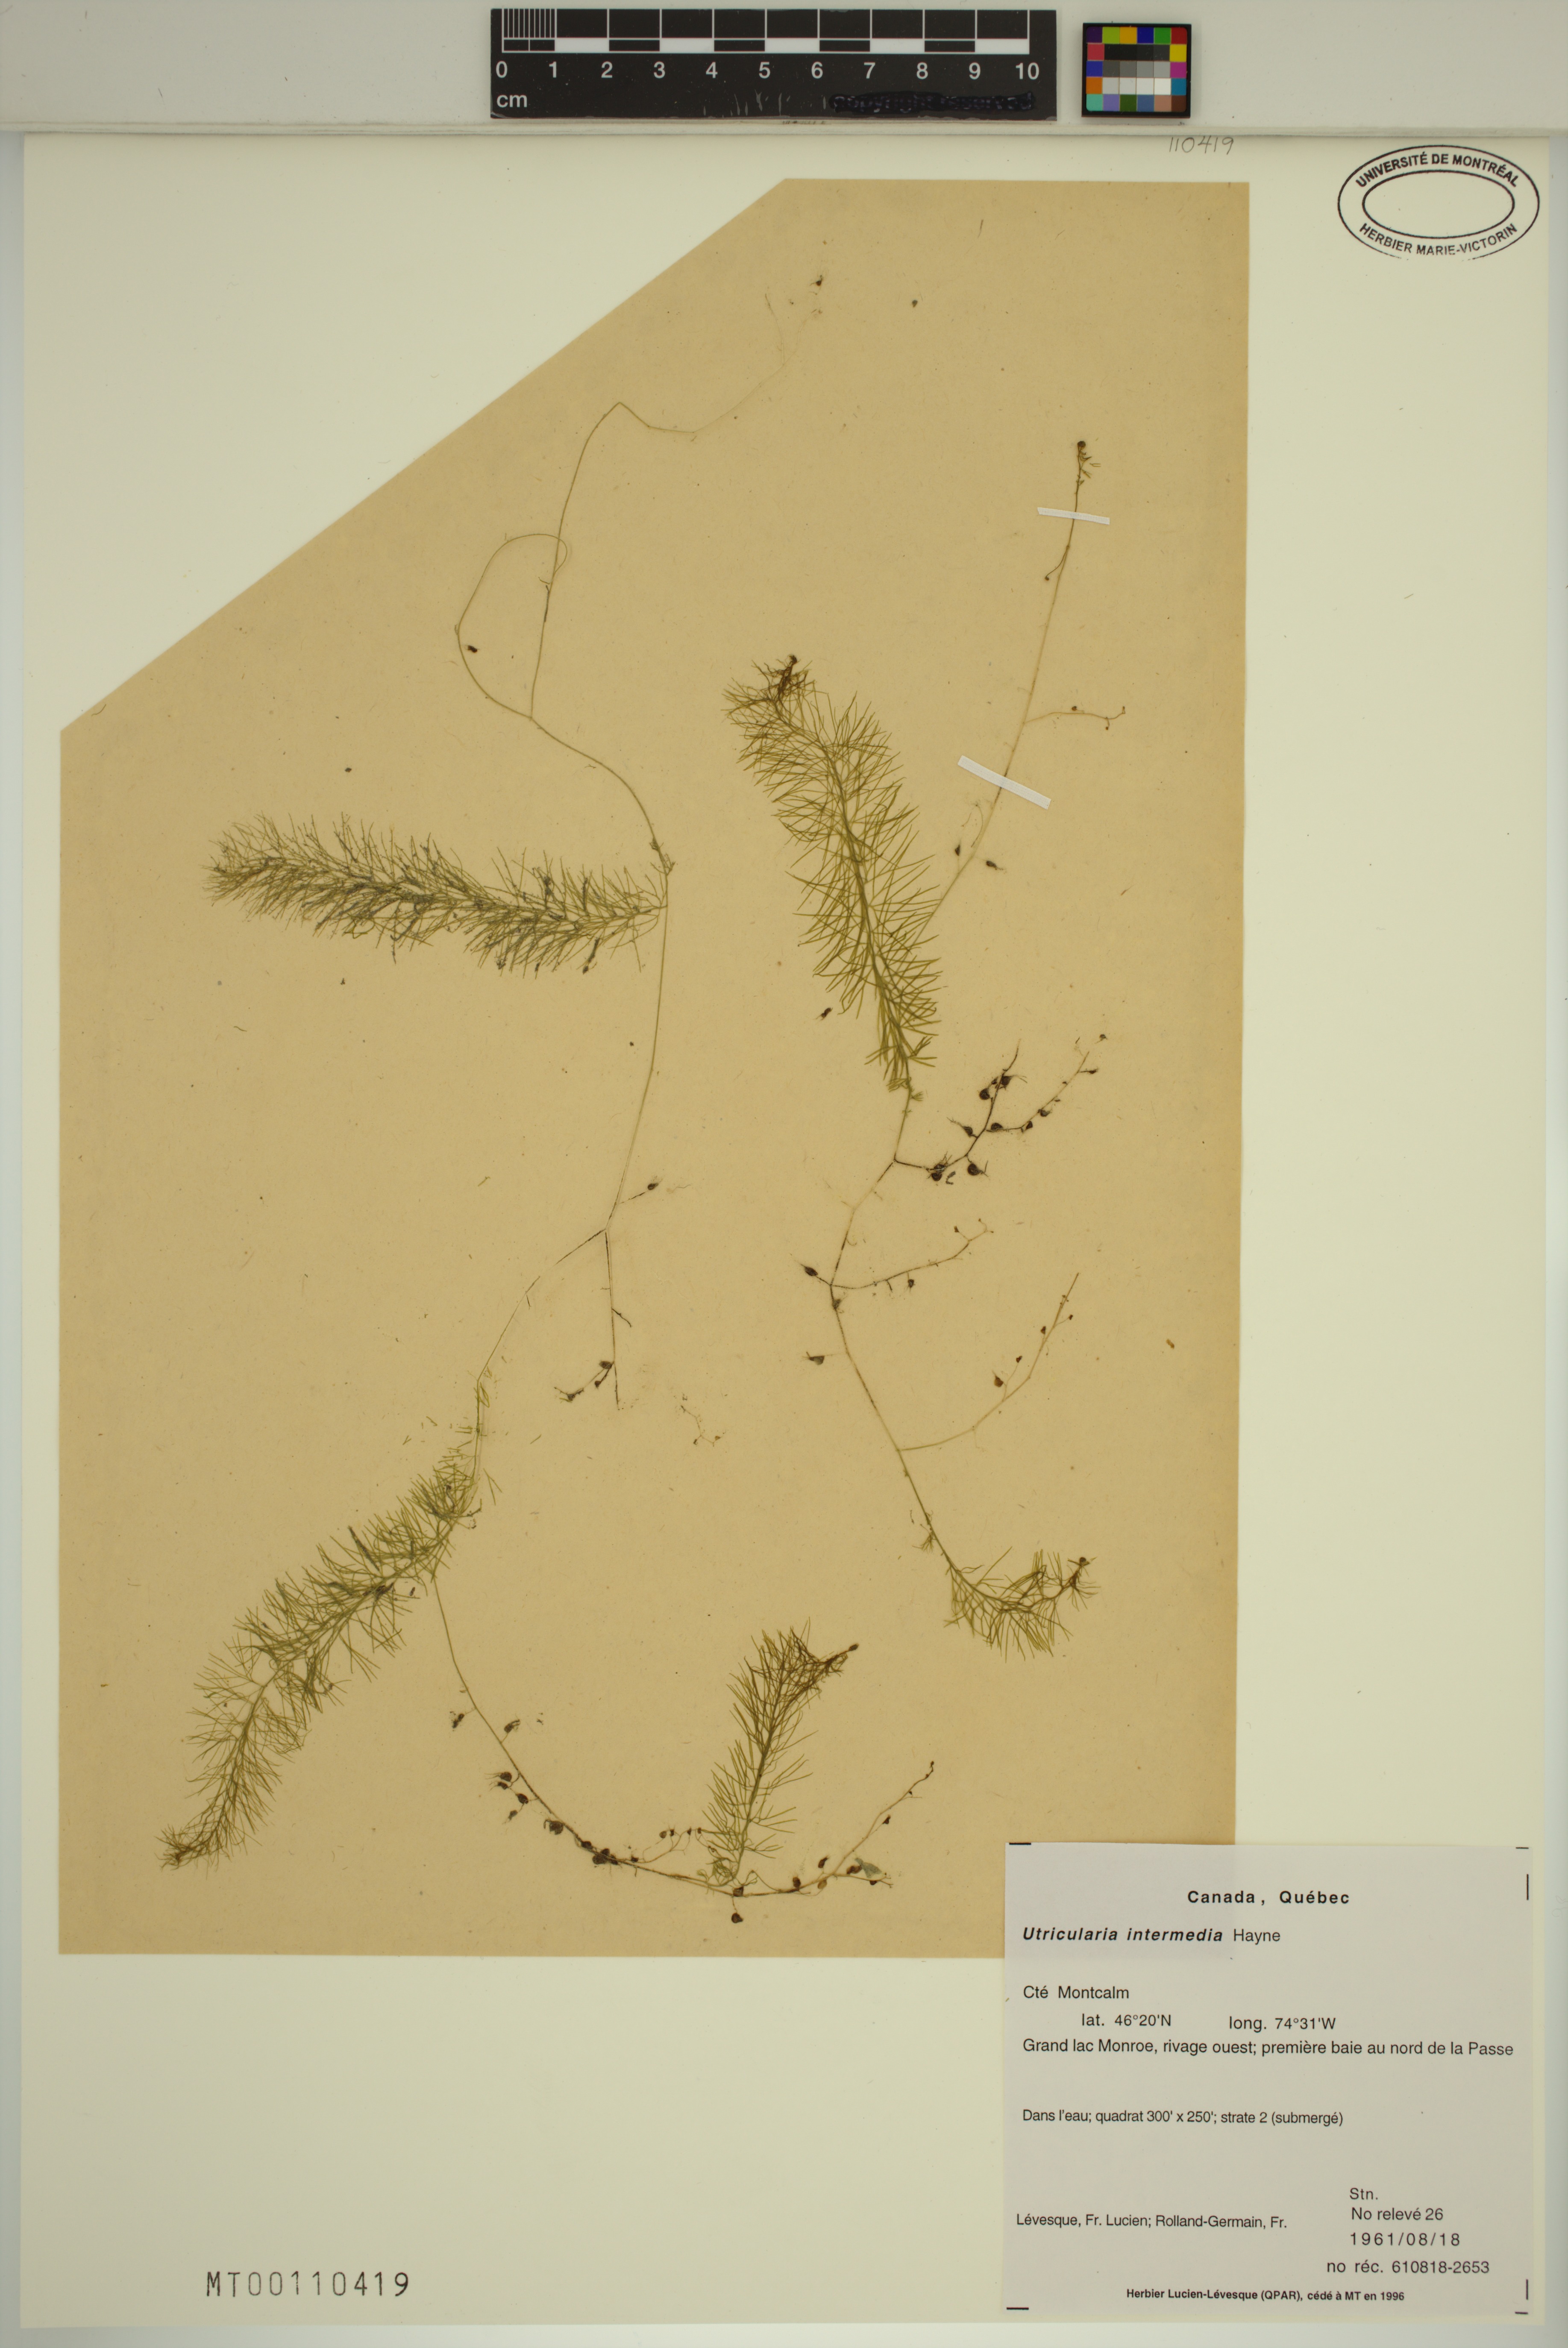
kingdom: Plantae
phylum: Tracheophyta
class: Magnoliopsida
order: Lamiales
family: Lentibulariaceae
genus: Utricularia
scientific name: Utricularia intermedia
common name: Intermediate bladderwort
